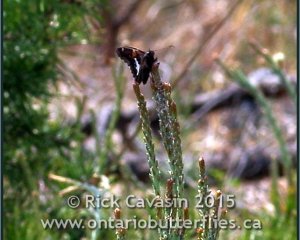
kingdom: Animalia
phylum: Arthropoda
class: Insecta
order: Lepidoptera
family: Hesperiidae
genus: Epargyreus
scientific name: Epargyreus clarus
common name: Silver-spotted Skipper
